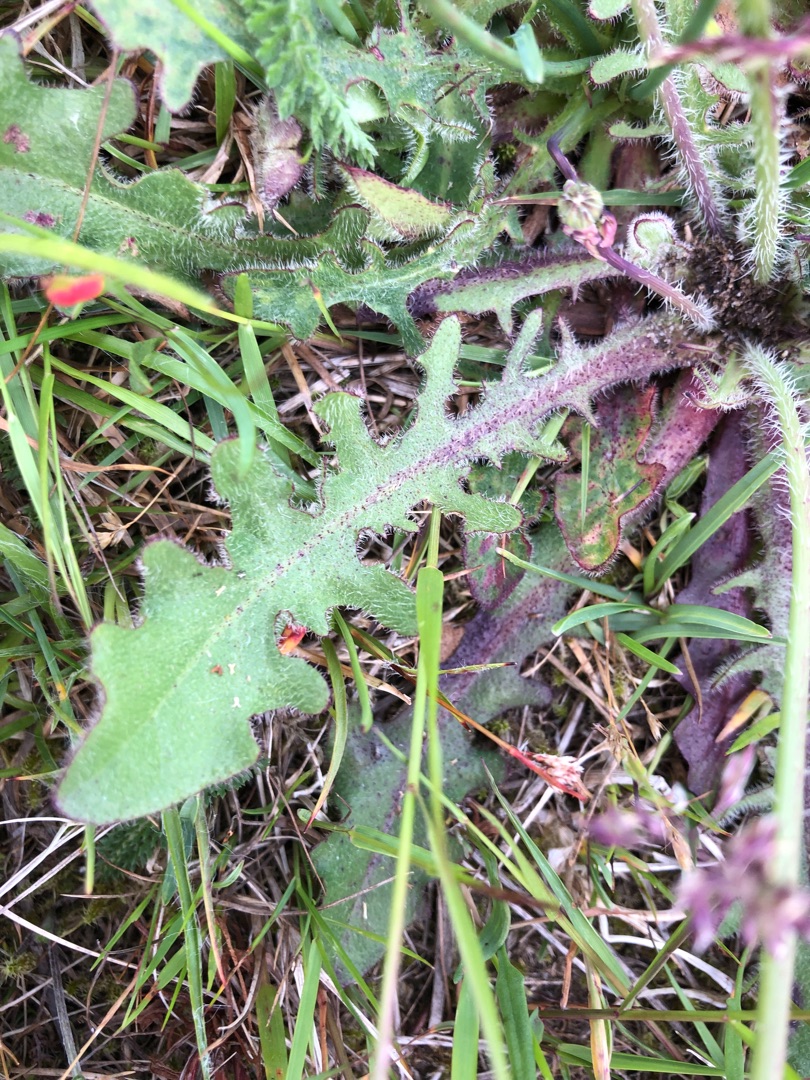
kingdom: Plantae
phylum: Tracheophyta
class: Magnoliopsida
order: Asterales
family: Asteraceae
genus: Hypochaeris
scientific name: Hypochaeris radicata
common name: Almindelig kongepen
